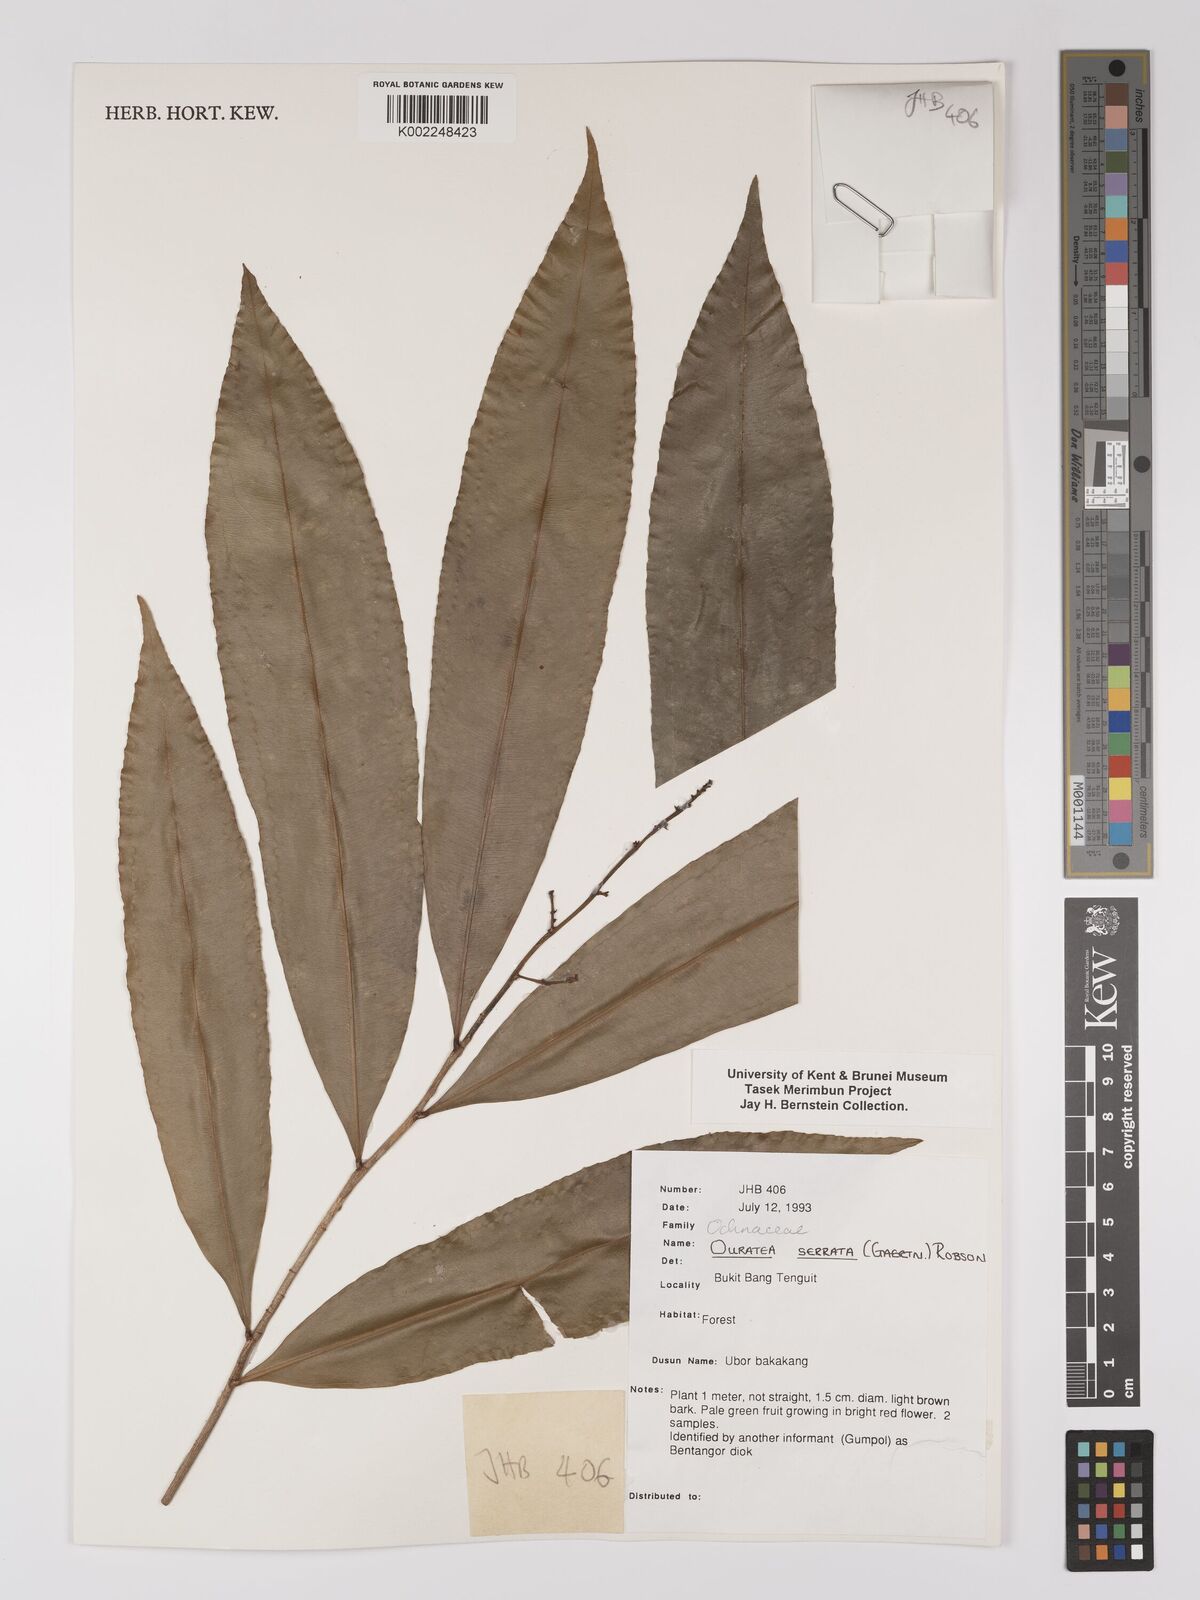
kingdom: Plantae
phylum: Tracheophyta
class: Magnoliopsida
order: Malpighiales
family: Ochnaceae
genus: Gomphia
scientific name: Gomphia serrata
